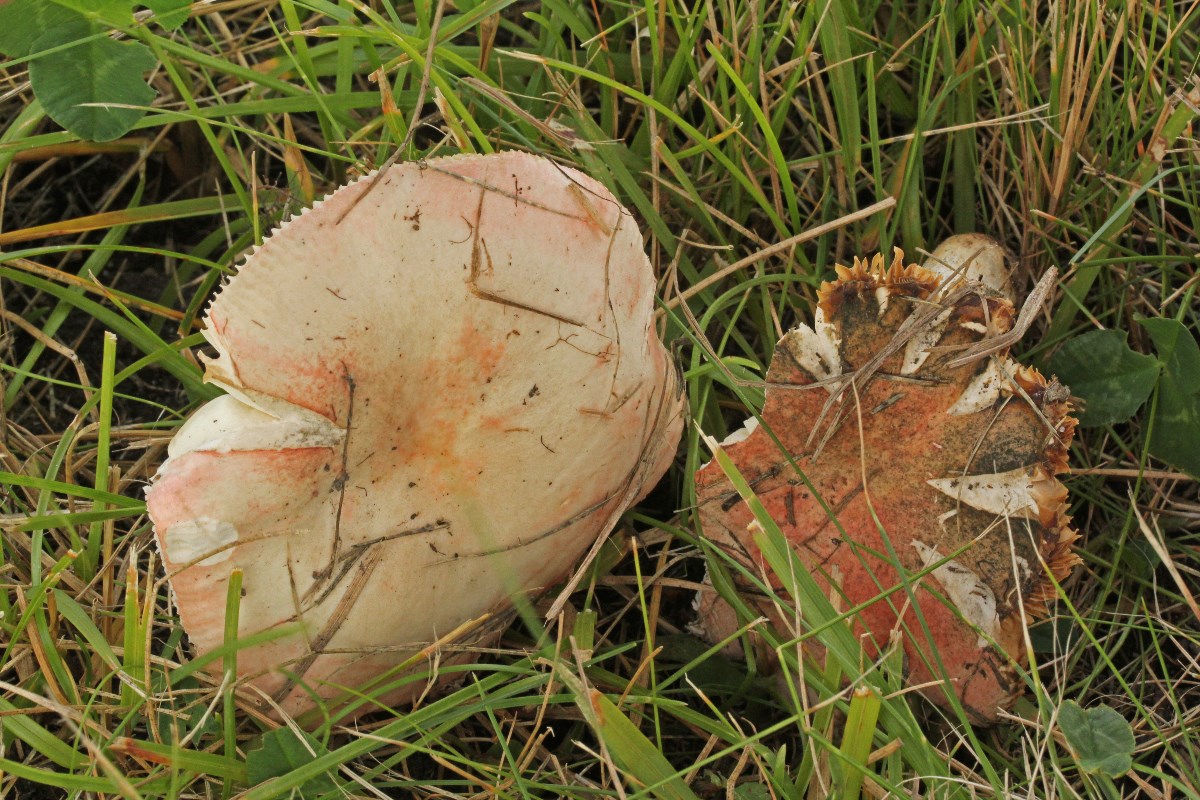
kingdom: Fungi
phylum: Basidiomycota
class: Agaricomycetes
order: Russulales
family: Russulaceae
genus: Russula
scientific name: Russula roseocremea
